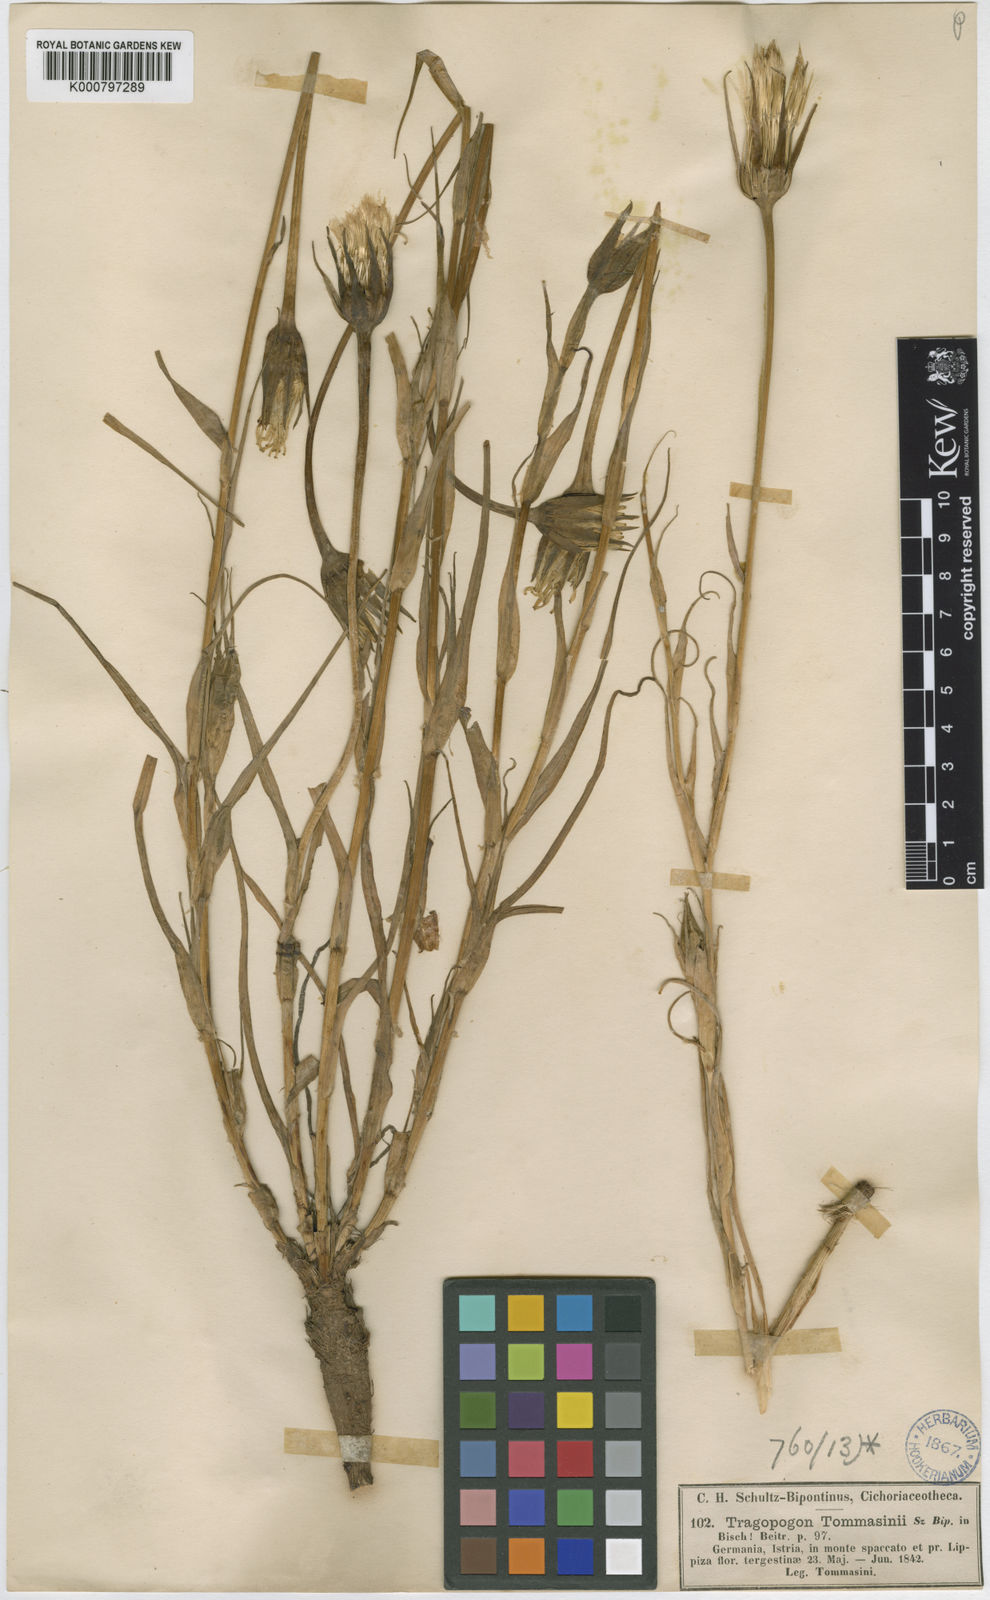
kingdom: Plantae
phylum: Tracheophyta
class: Magnoliopsida
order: Asterales
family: Asteraceae
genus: Tragopogon
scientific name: Tragopogon tommasinii
